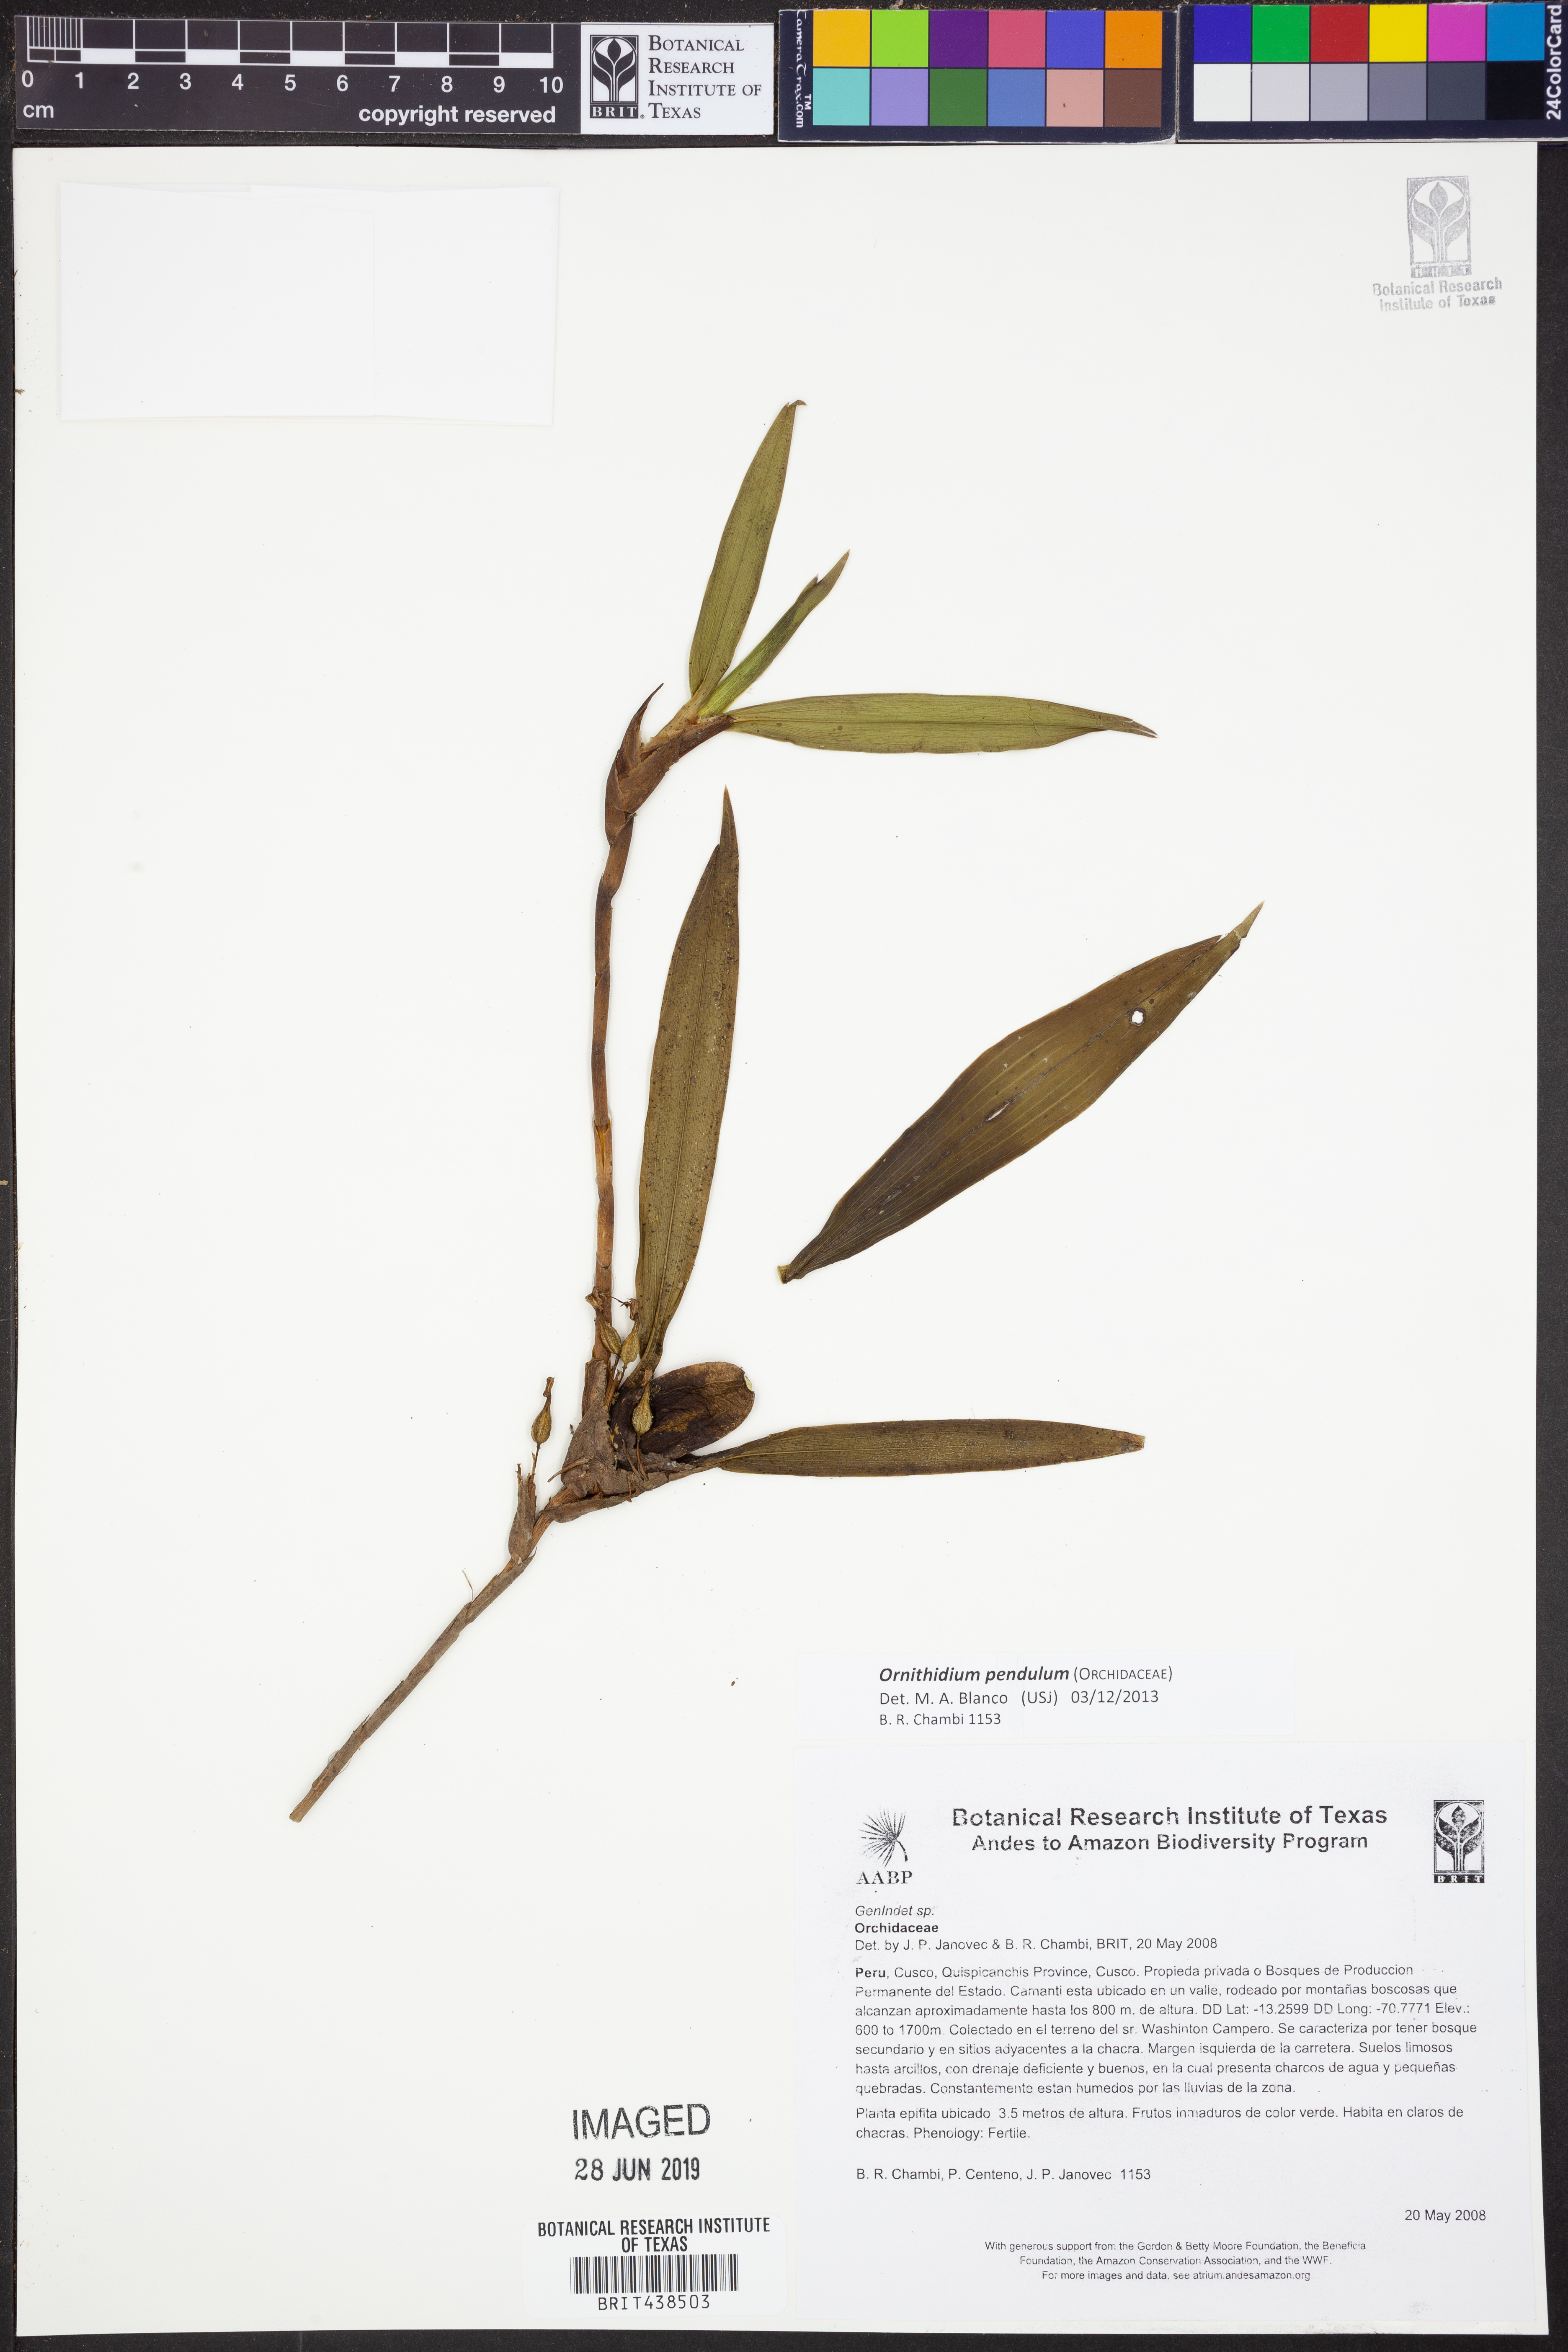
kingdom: Plantae
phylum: Tracheophyta
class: Liliopsida
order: Asparagales
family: Orchidaceae
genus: Maxillaria
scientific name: Maxillaria pendula
